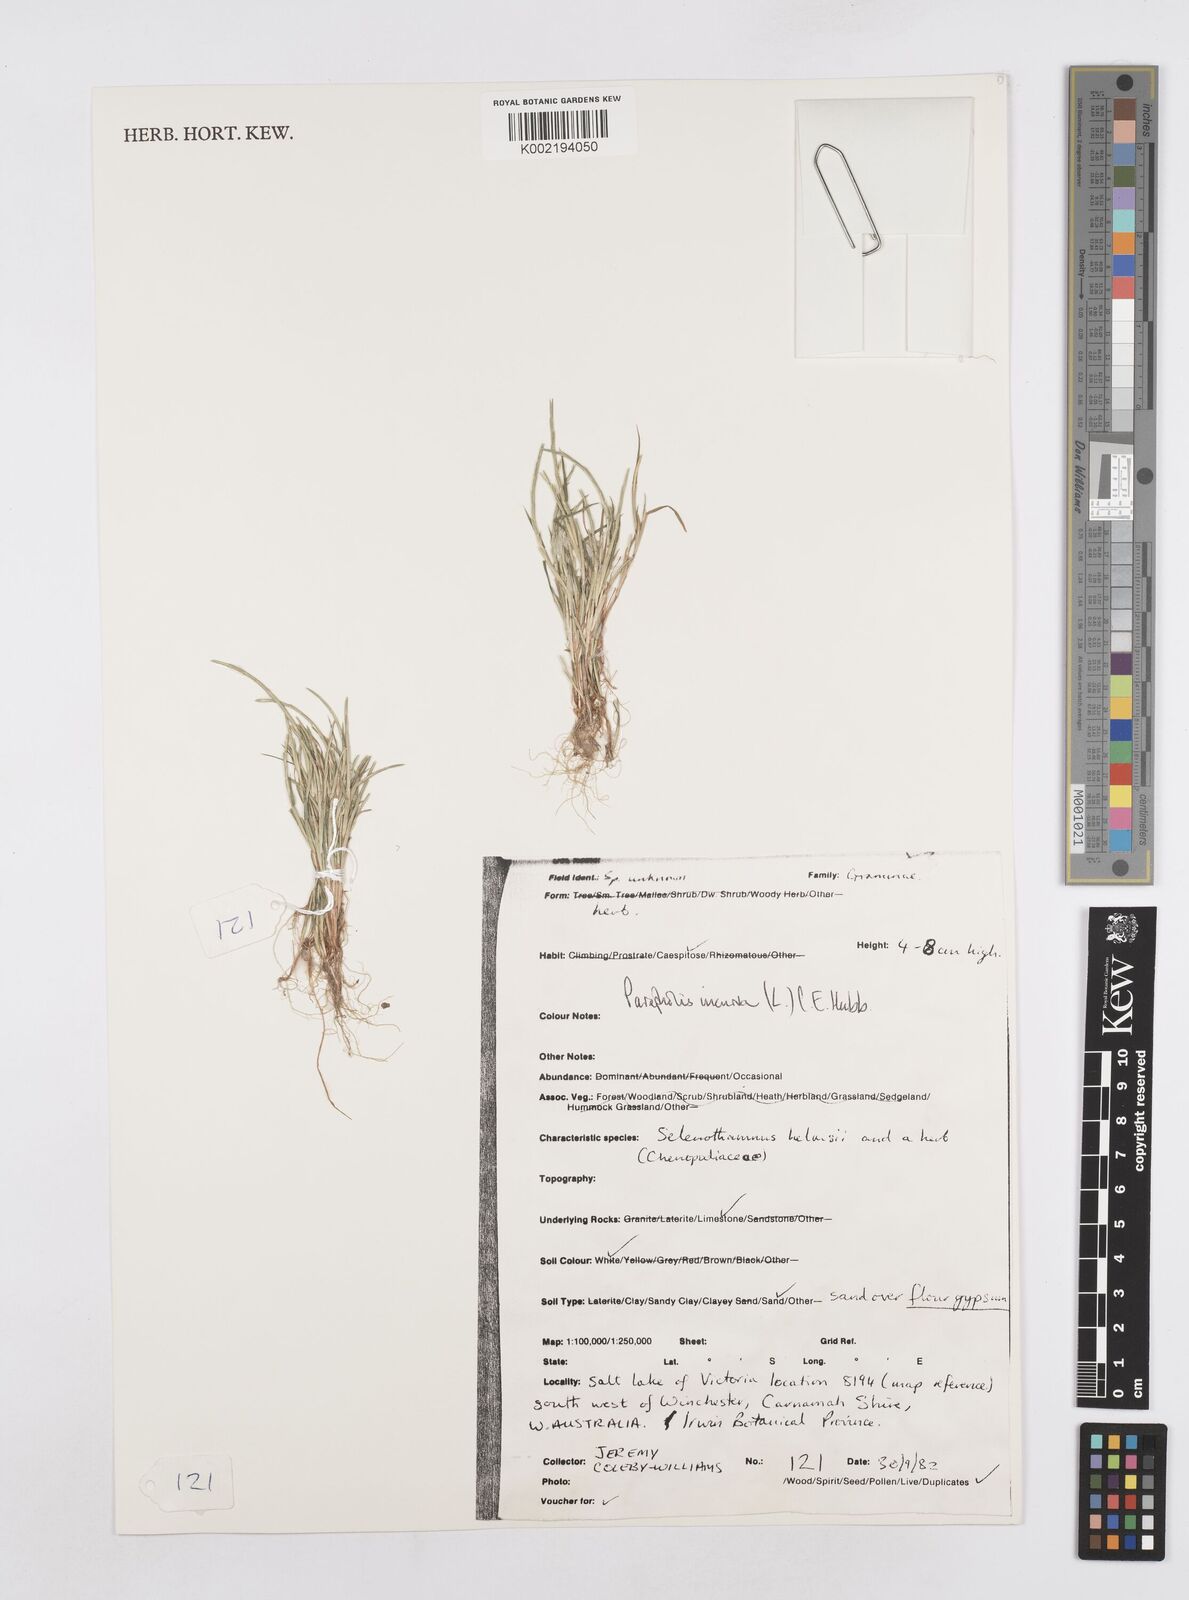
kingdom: Plantae
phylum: Tracheophyta
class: Liliopsida
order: Poales
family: Poaceae
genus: Parapholis
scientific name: Parapholis incurva
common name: Curved sicklegrass
